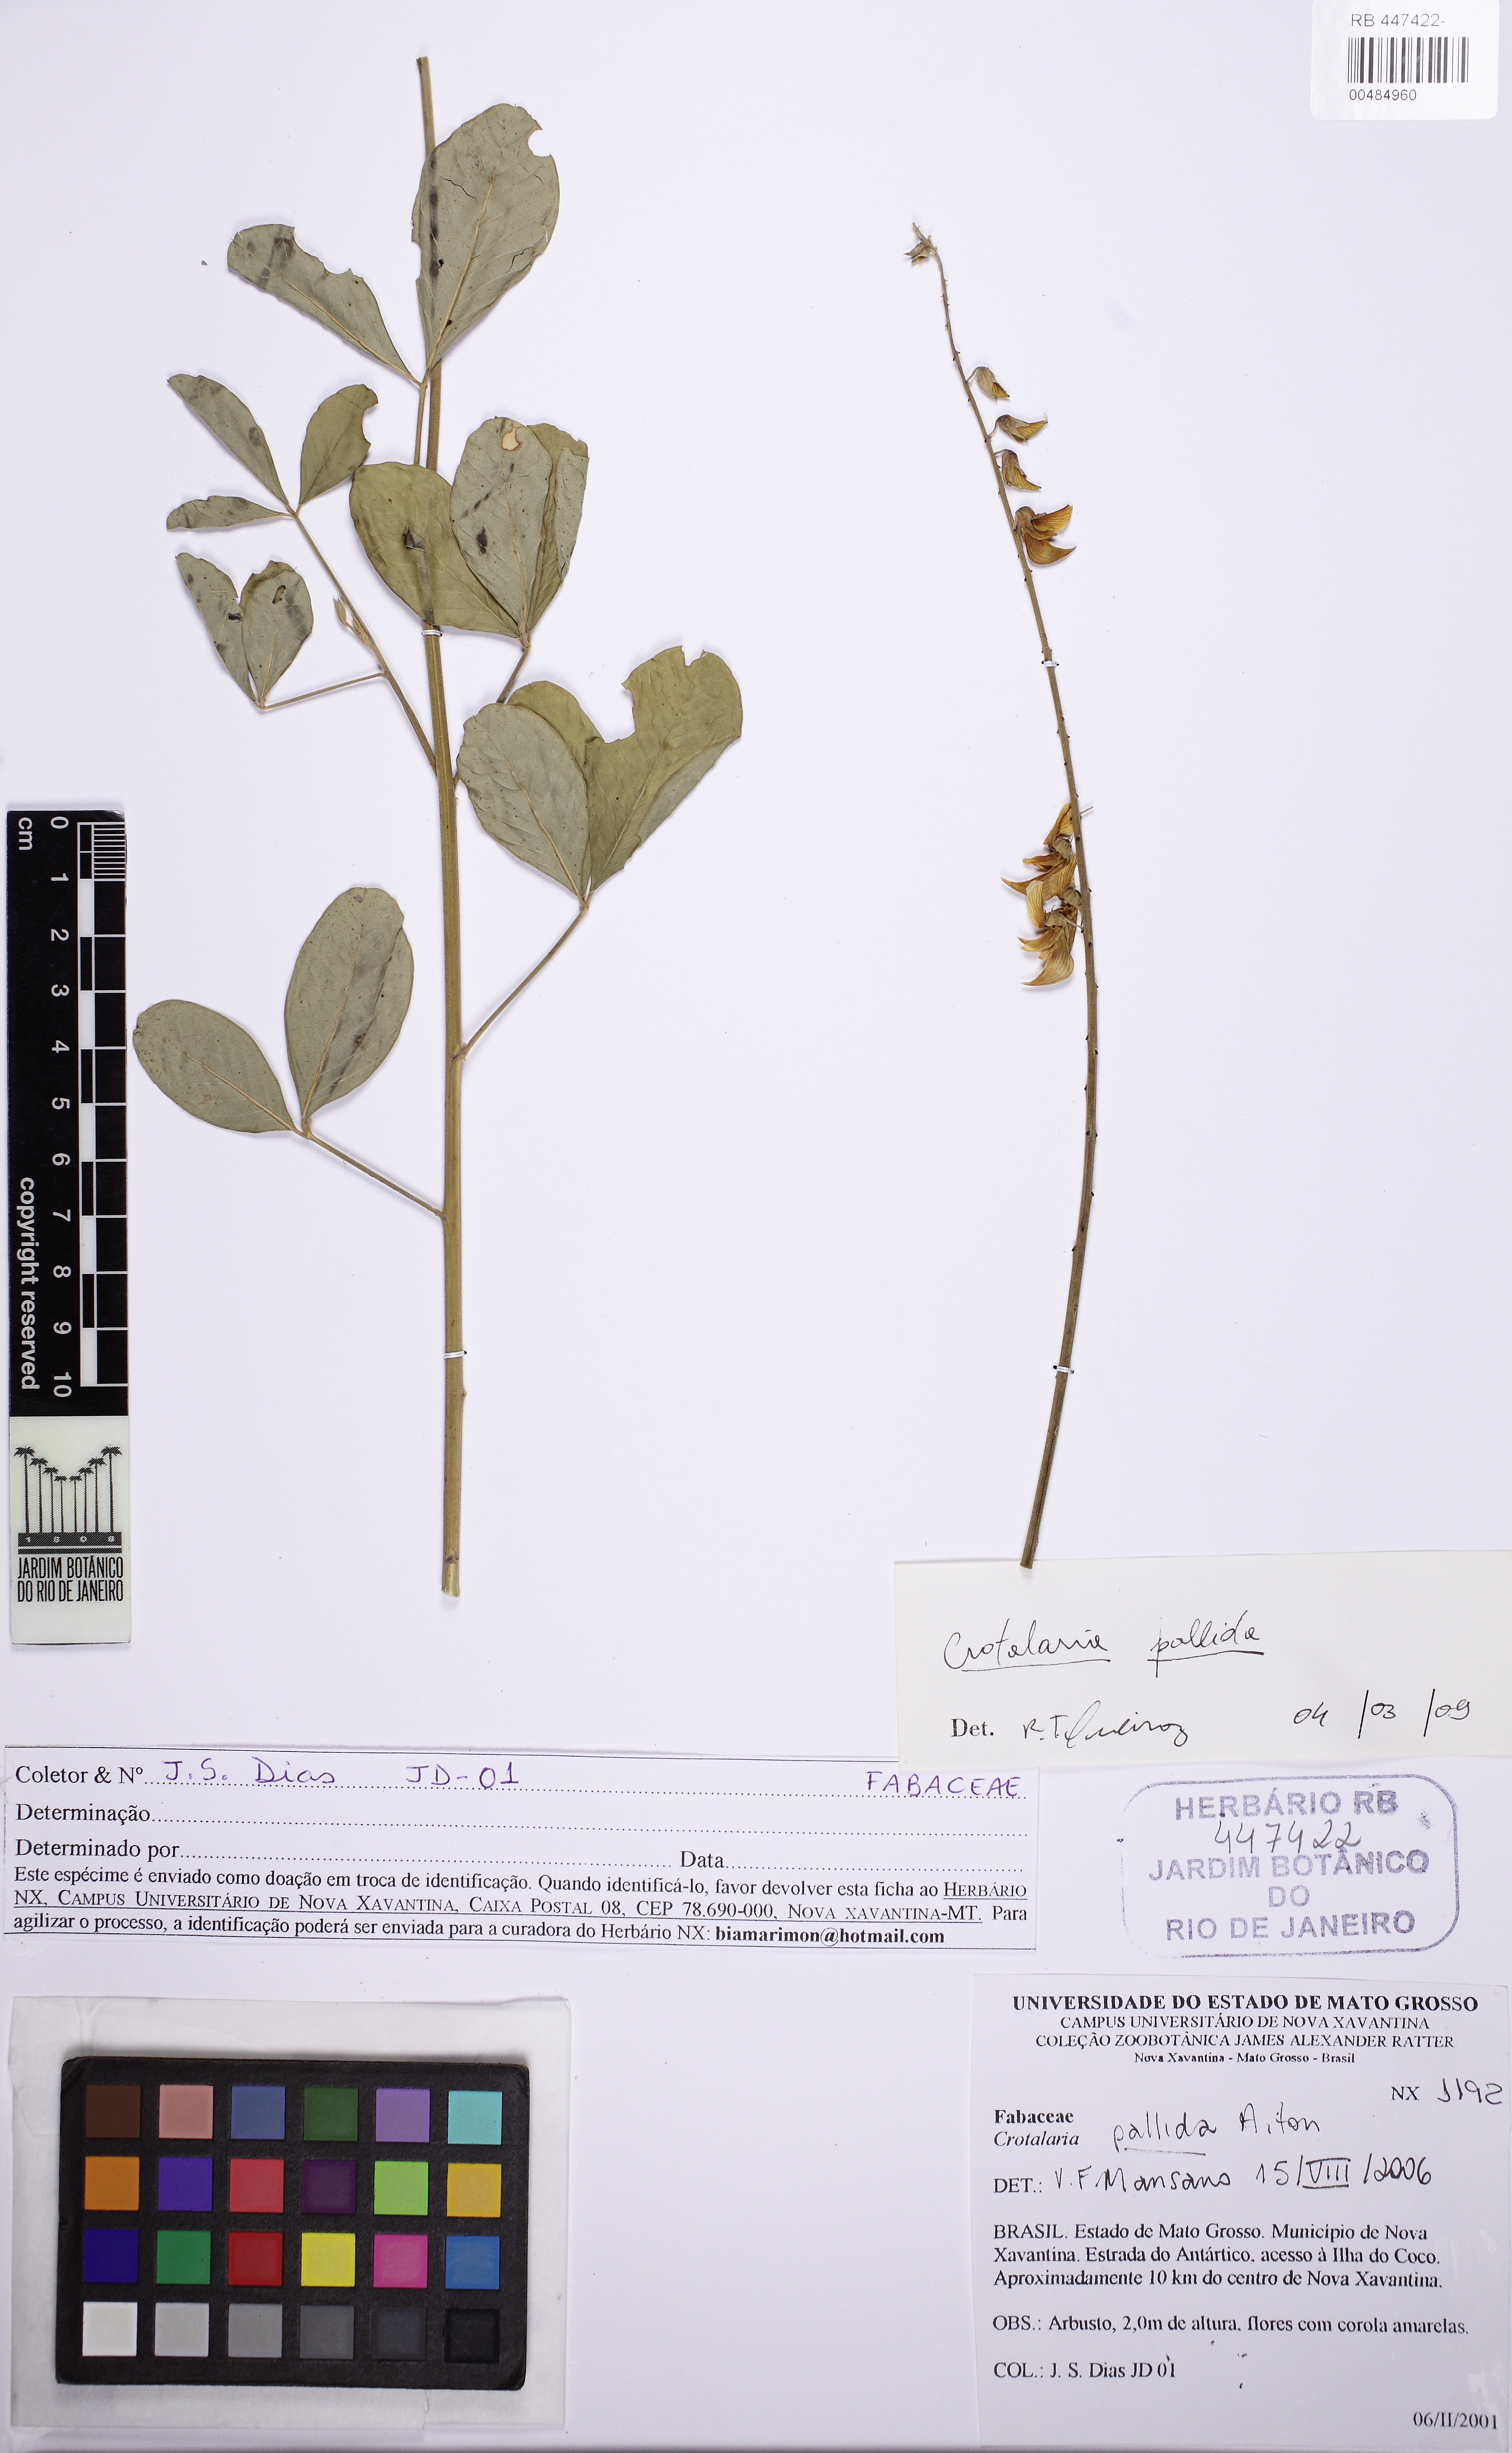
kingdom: Plantae
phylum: Tracheophyta
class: Magnoliopsida
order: Fabales
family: Fabaceae
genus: Crotalaria
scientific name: Crotalaria pallida
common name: Smooth rattlebox
